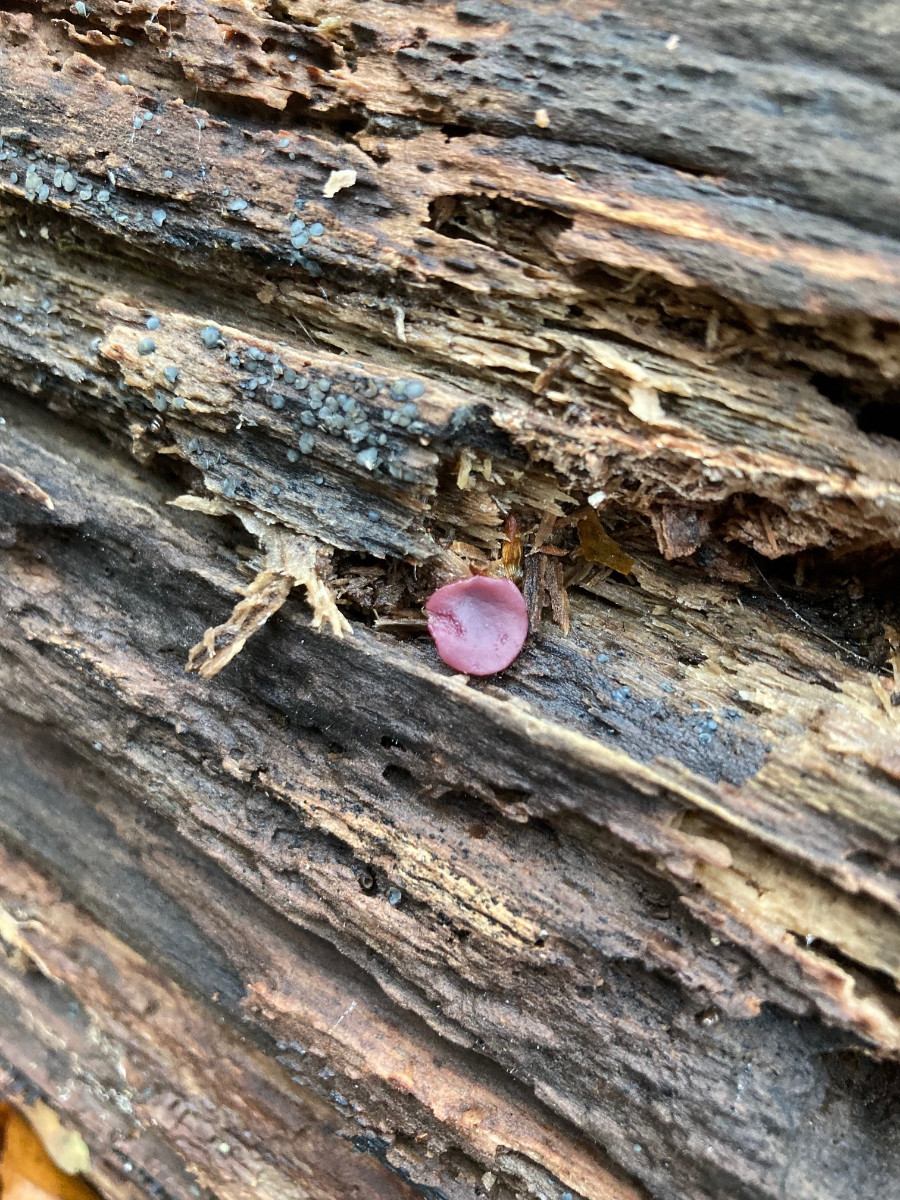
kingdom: Fungi
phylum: Ascomycota
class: Leotiomycetes
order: Helotiales
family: Gelatinodiscaceae
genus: Ascocoryne
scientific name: Ascocoryne cylichnium
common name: stor sejskive
